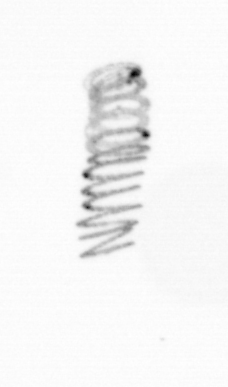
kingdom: Chromista
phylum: Ochrophyta
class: Bacillariophyceae
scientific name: Bacillariophyceae
